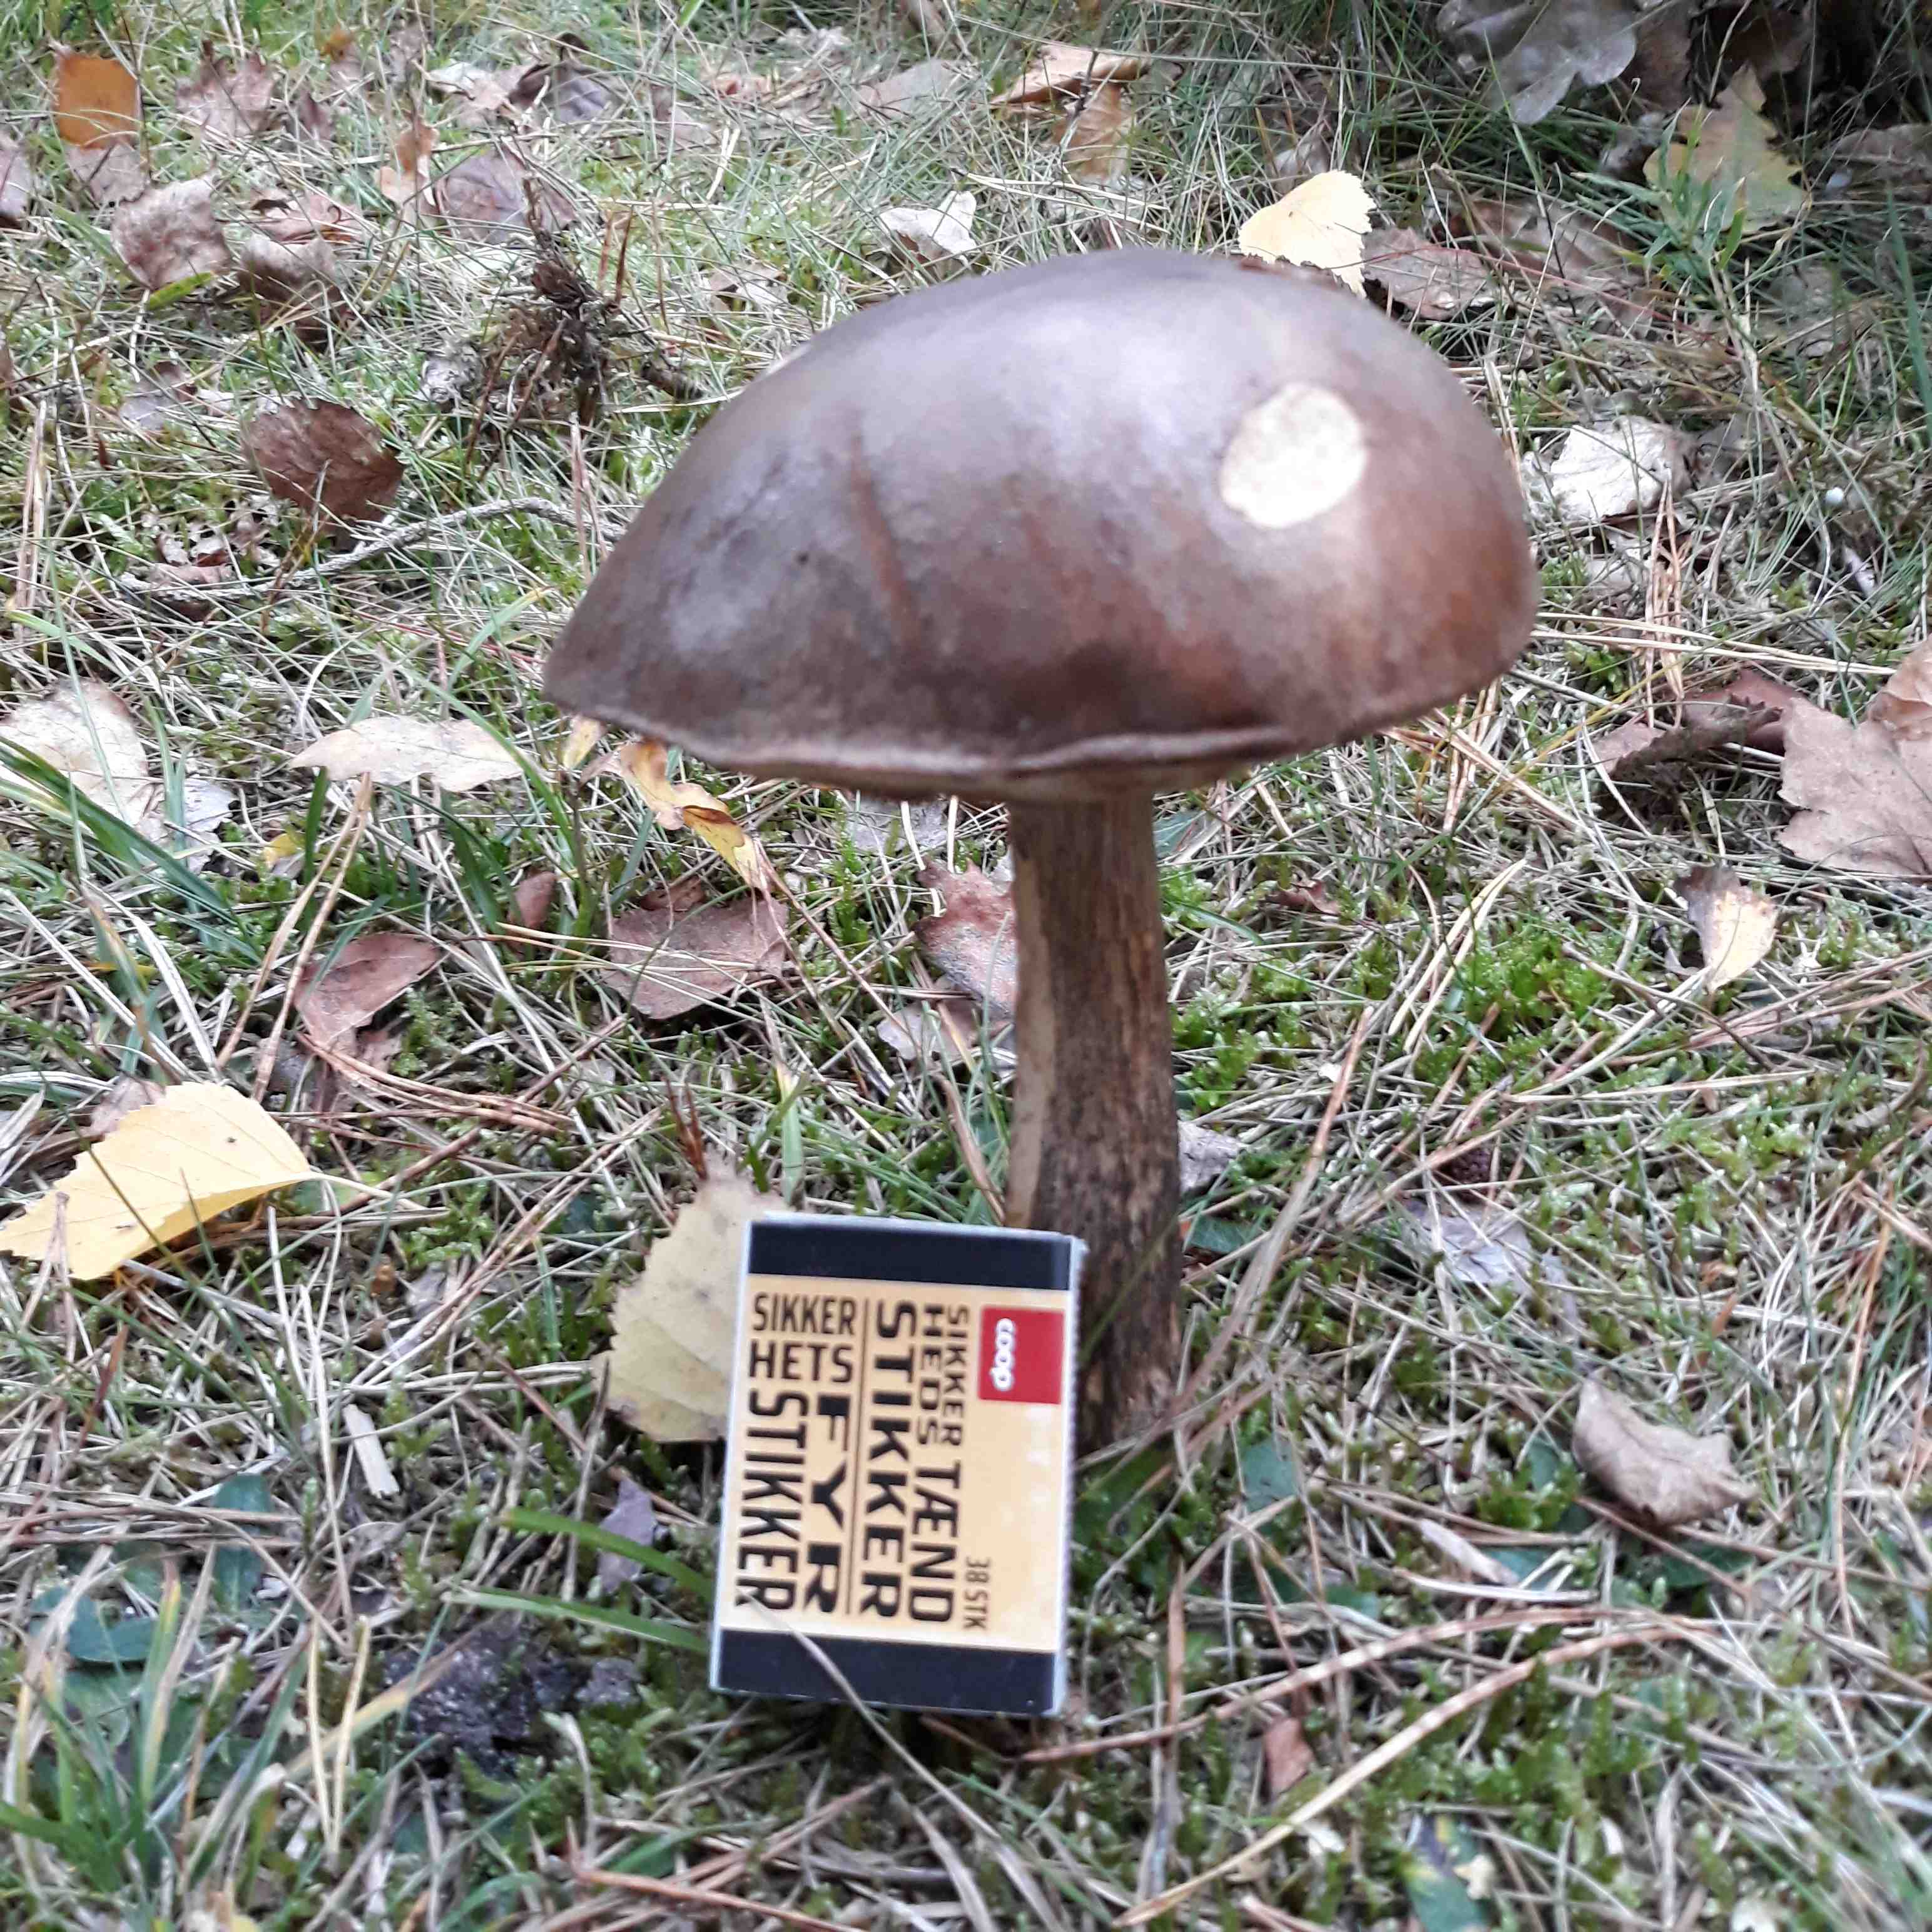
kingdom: Fungi
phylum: Basidiomycota
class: Agaricomycetes
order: Boletales
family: Boletaceae
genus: Leccinum
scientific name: Leccinum
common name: skælrørhat
